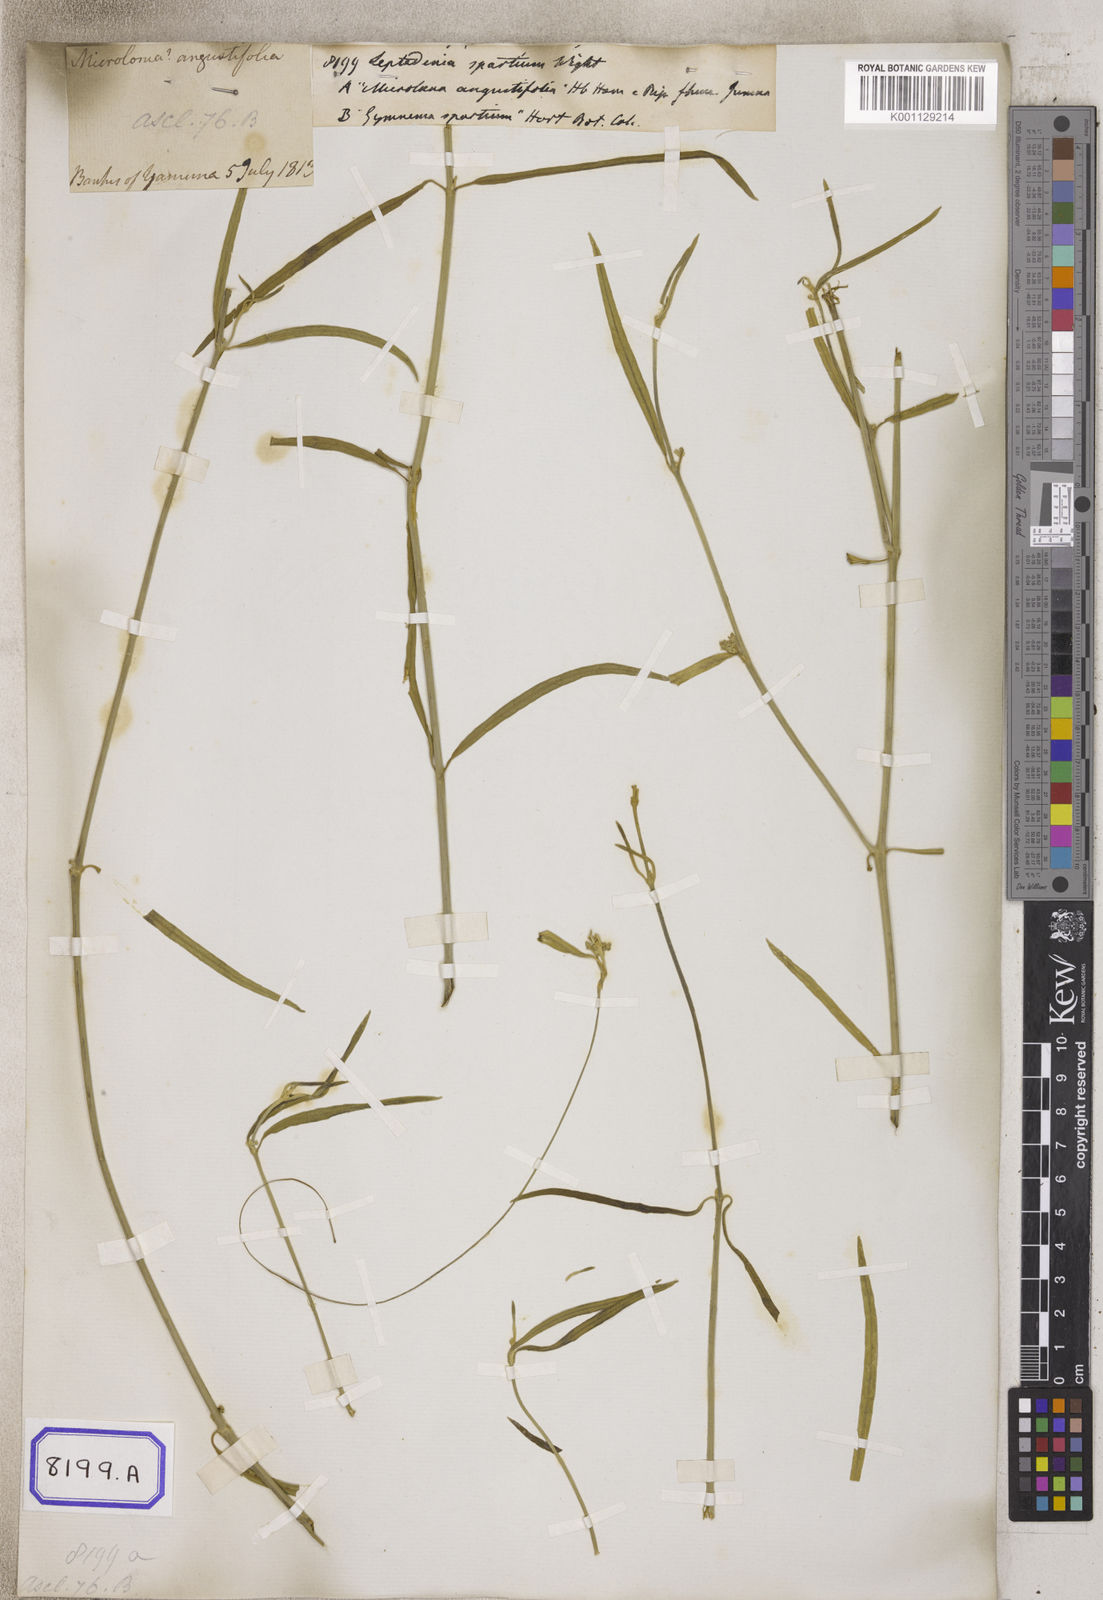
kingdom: Plantae
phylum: Tracheophyta
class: Magnoliopsida
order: Gentianales
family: Apocynaceae
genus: Leptadenia
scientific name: Leptadenia pyrotechnica
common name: Broom brush
